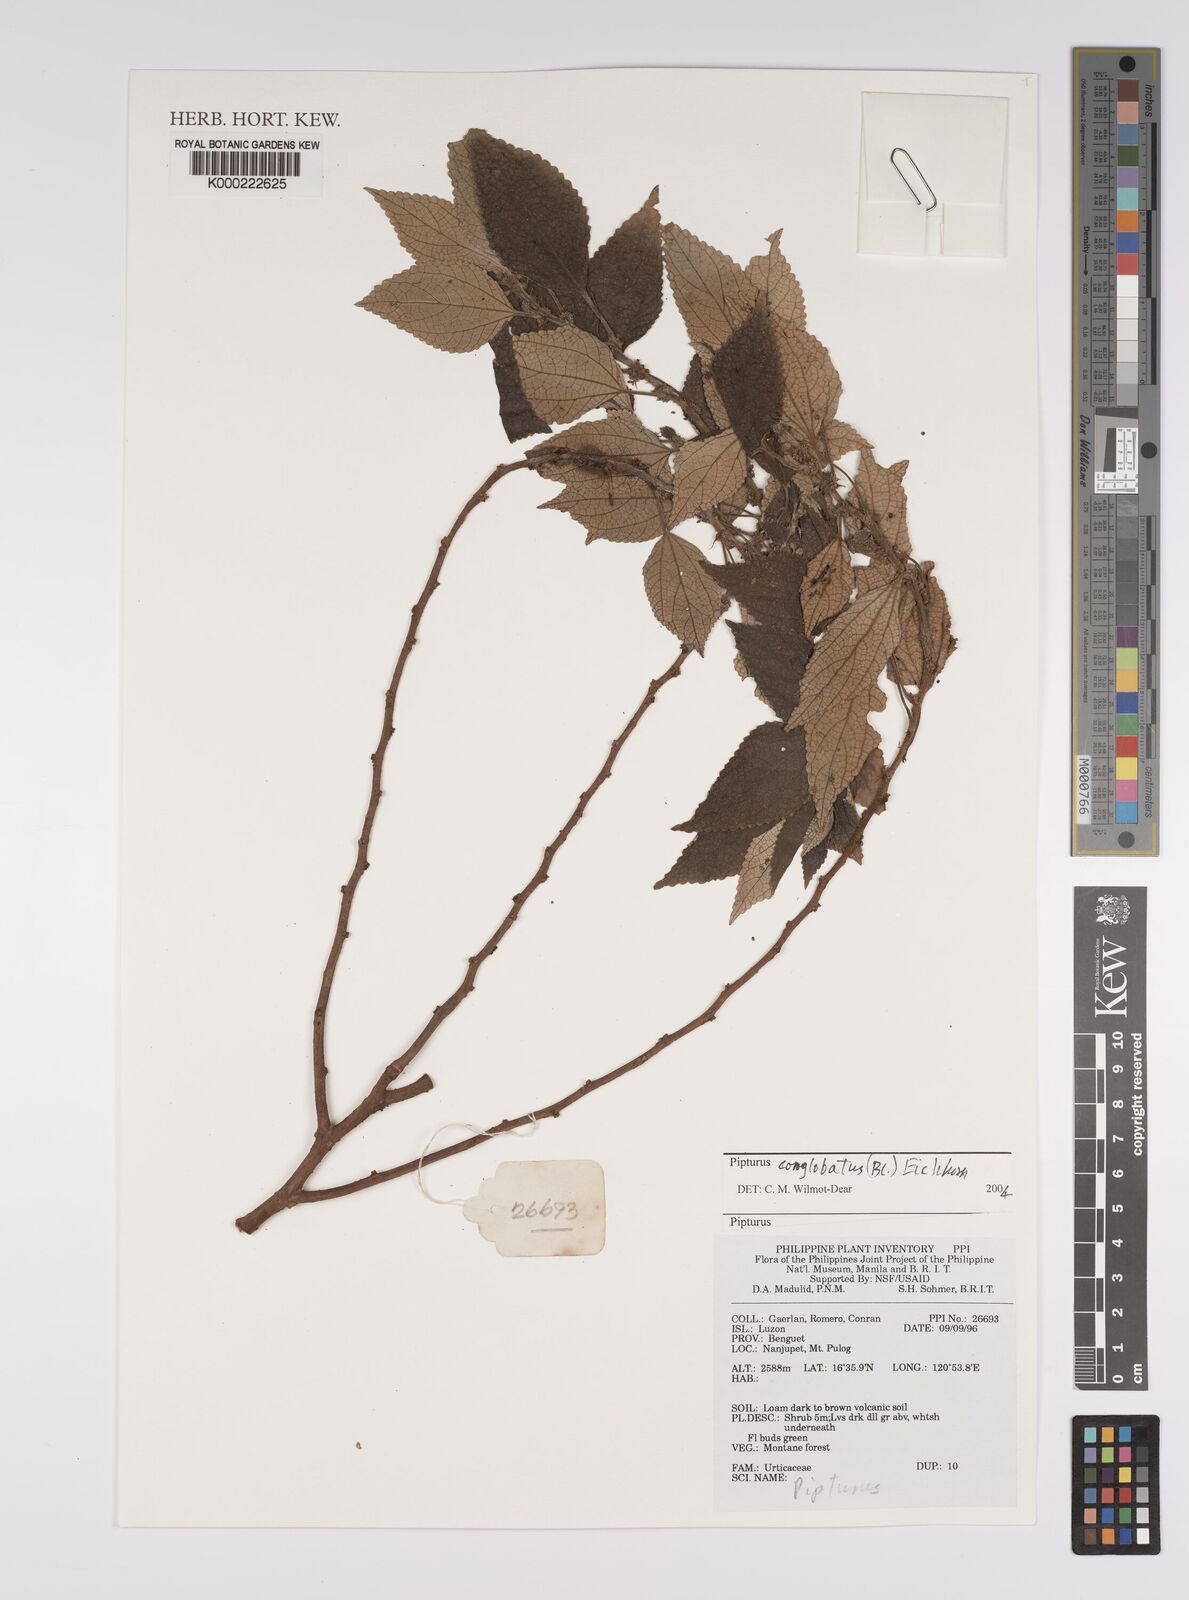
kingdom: Plantae
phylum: Tracheophyta
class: Magnoliopsida
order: Rosales
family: Urticaceae
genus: Pipturus
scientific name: Pipturus
